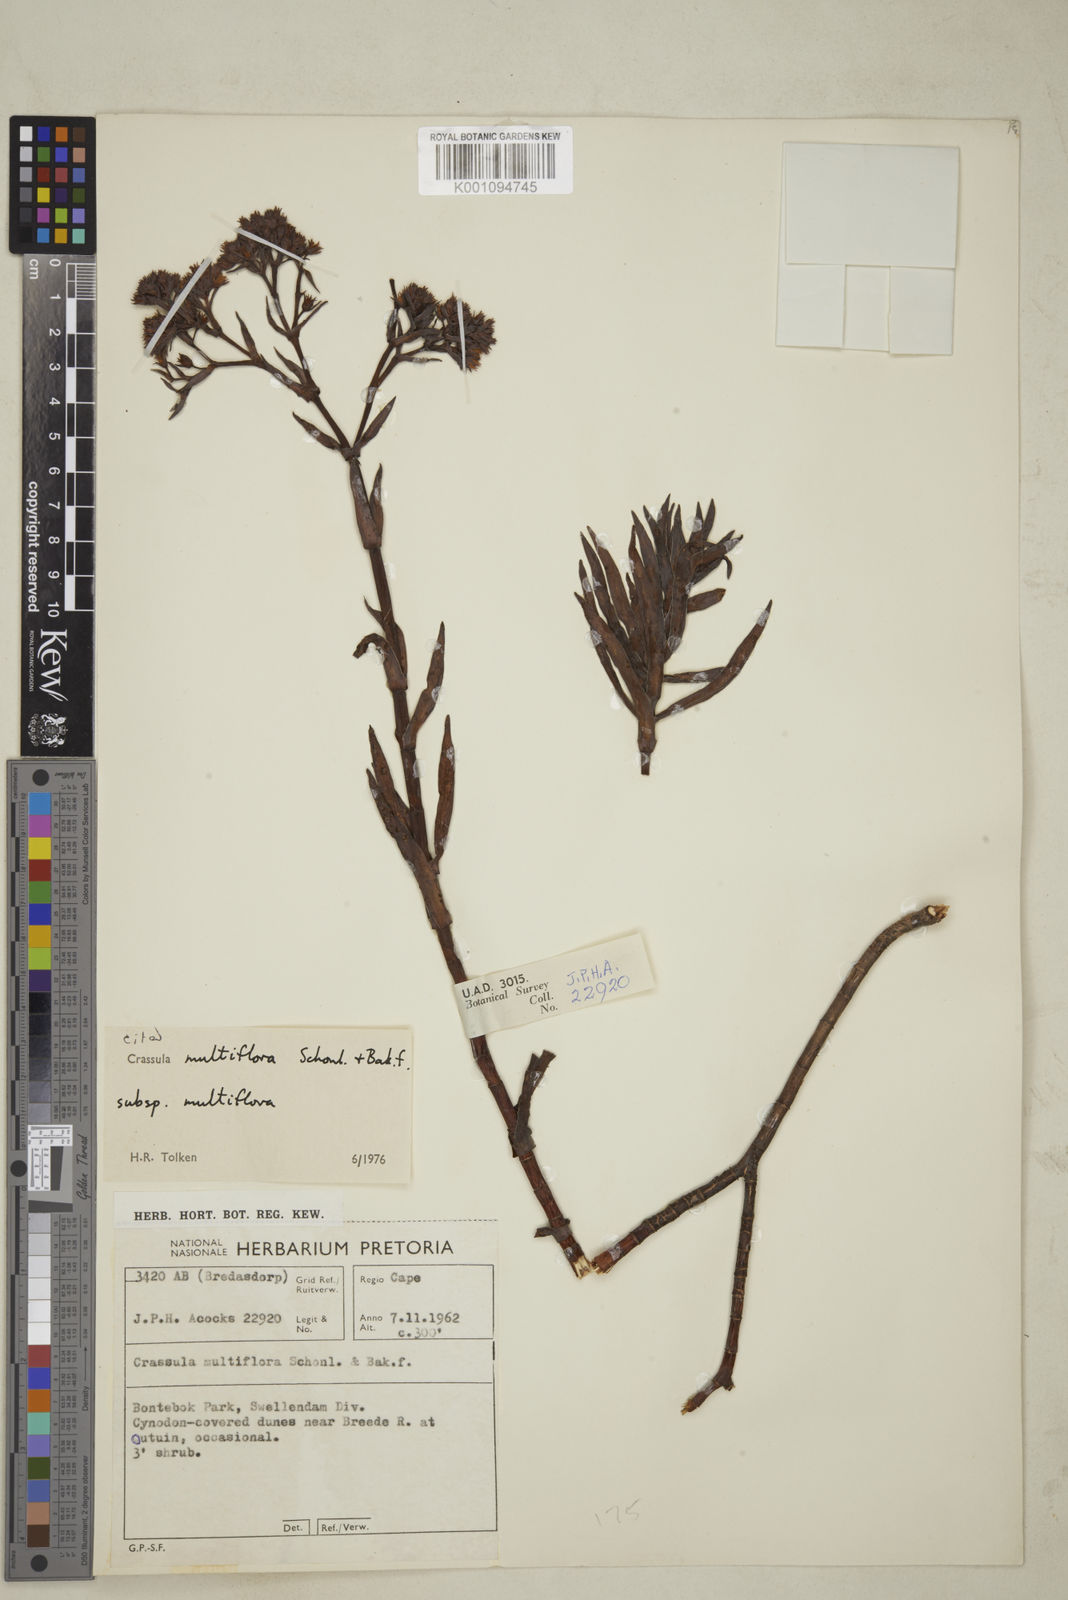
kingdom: Plantae
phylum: Tracheophyta
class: Magnoliopsida
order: Saxifragales
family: Crassulaceae
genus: Crassula
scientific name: Crassula
